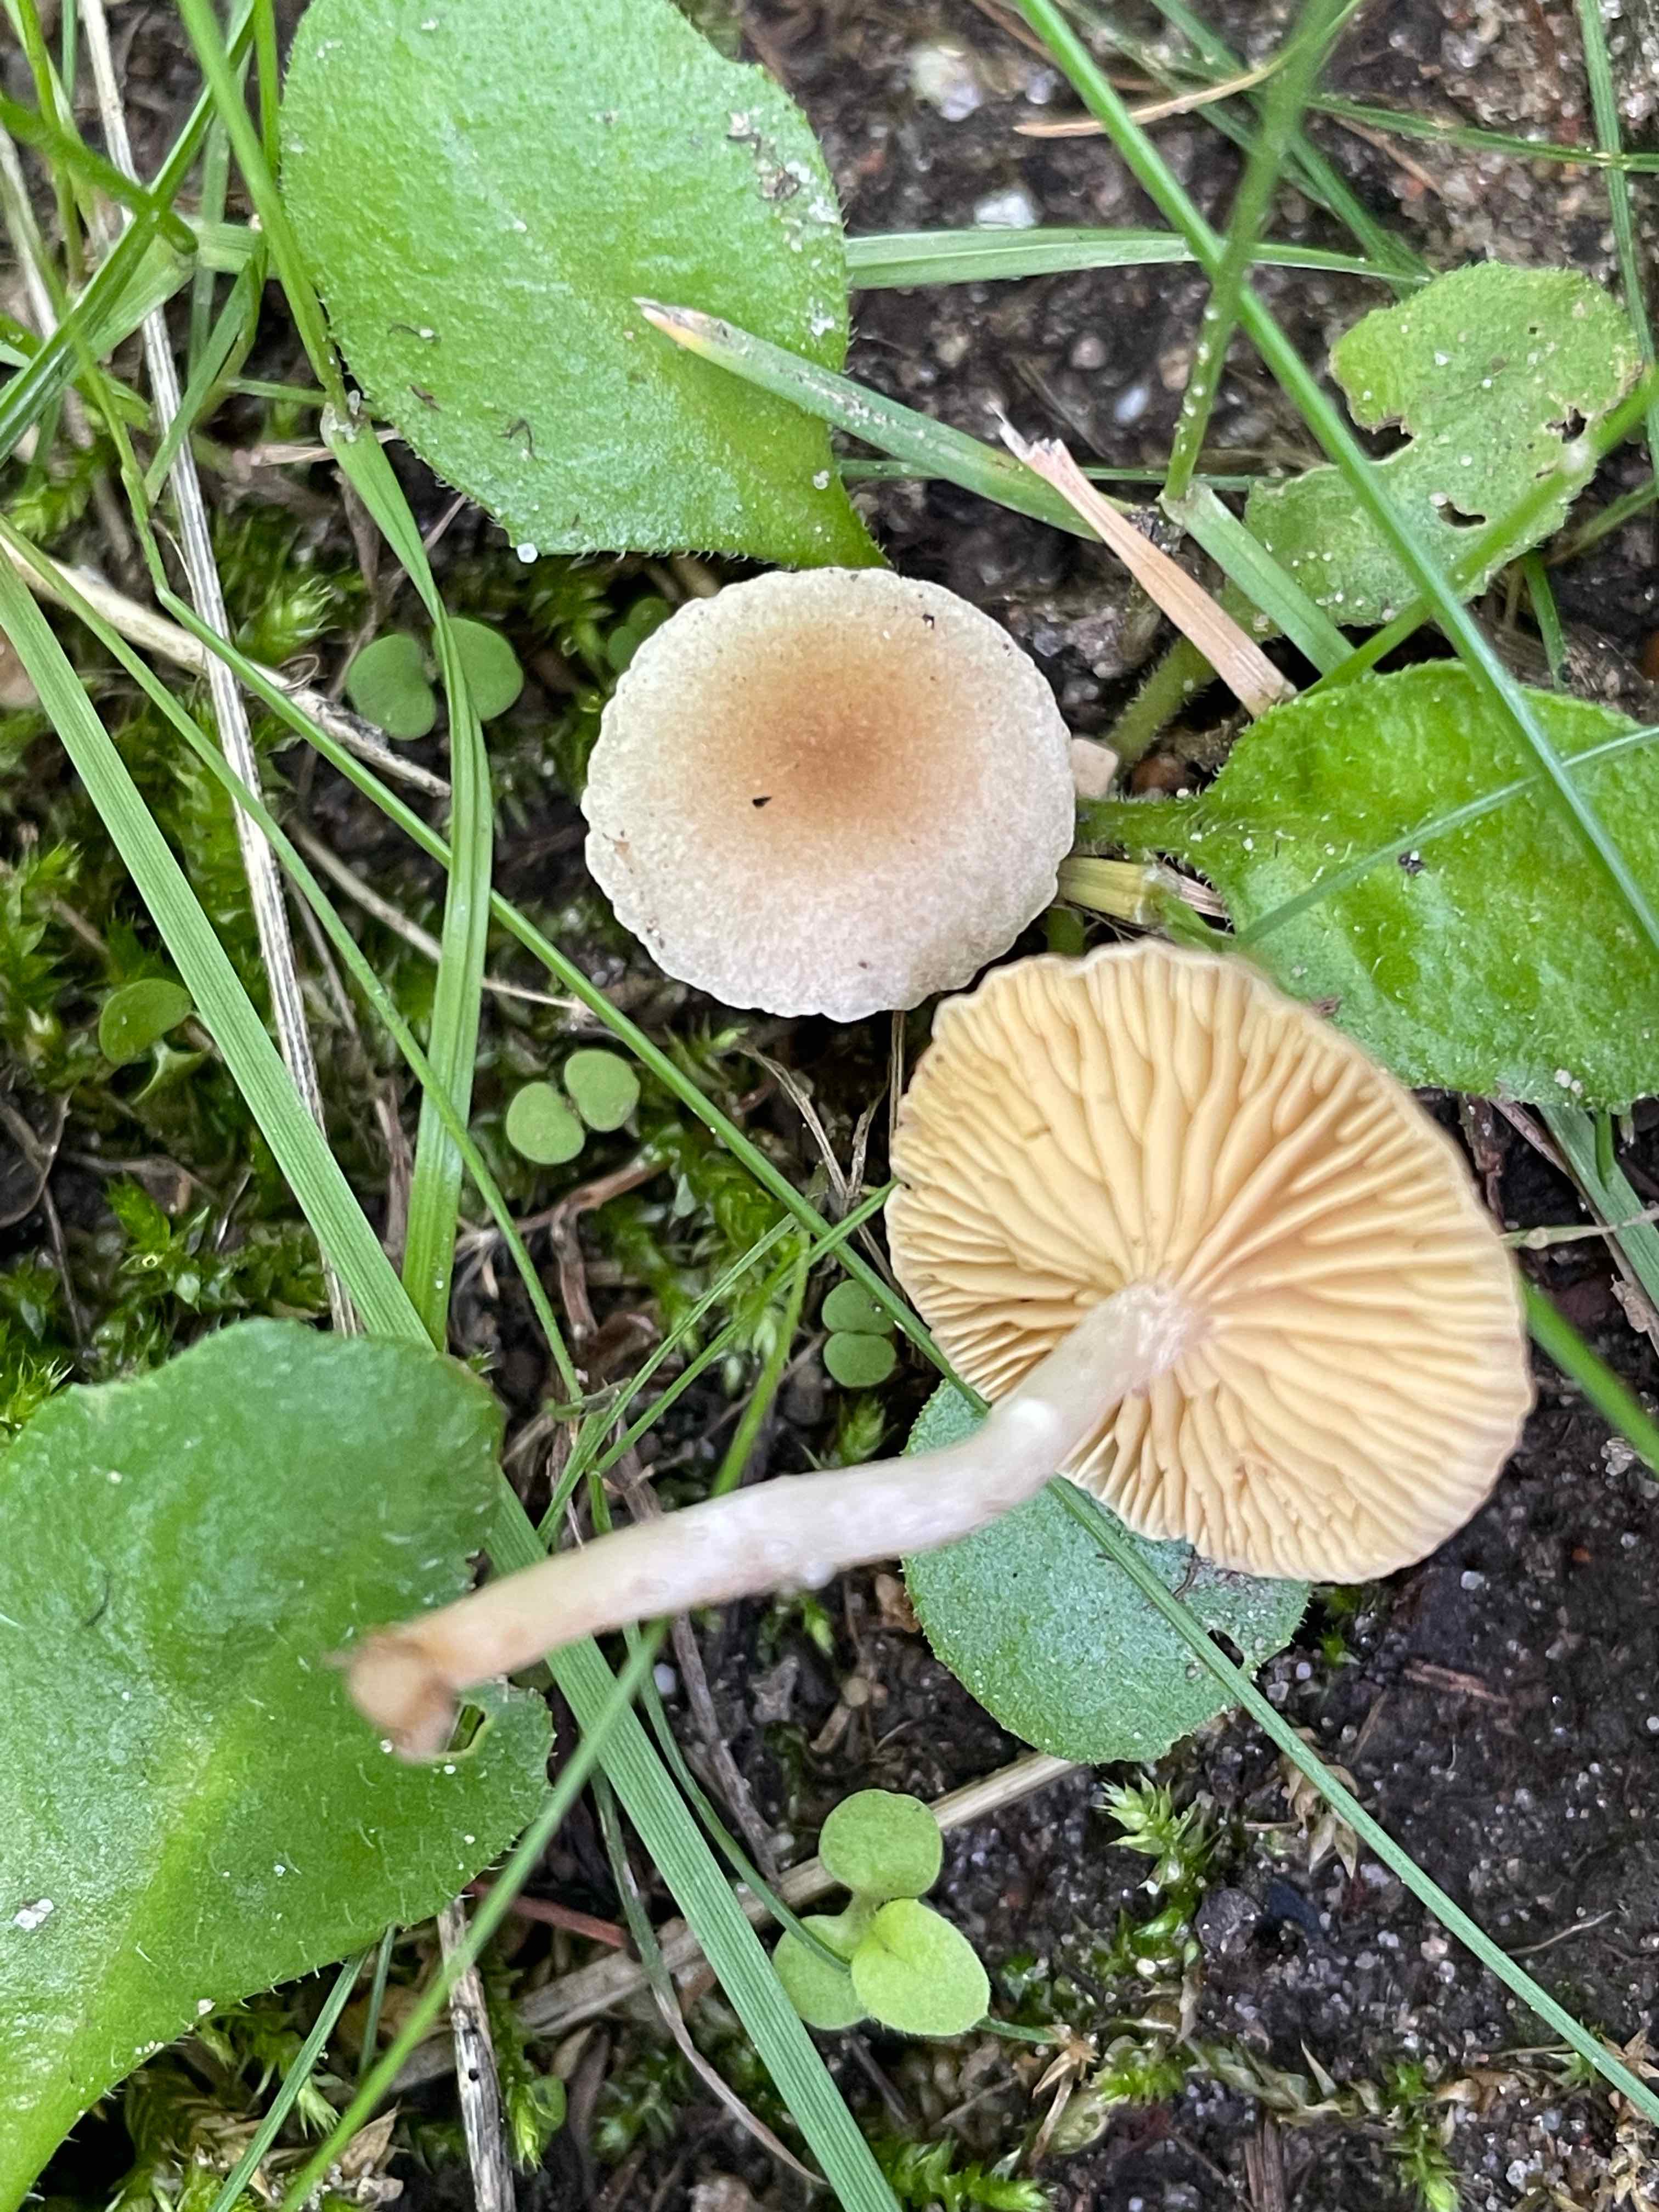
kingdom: Fungi
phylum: Basidiomycota
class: Agaricomycetes
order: Agaricales
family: Tubariaceae
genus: Tubaria
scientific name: Tubaria dispersa
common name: tjørne-fnughat
